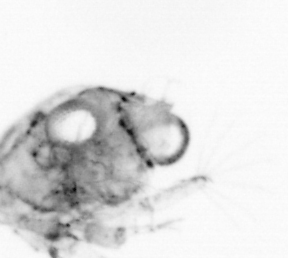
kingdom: Animalia
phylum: Arthropoda
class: Copepoda
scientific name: Copepoda
